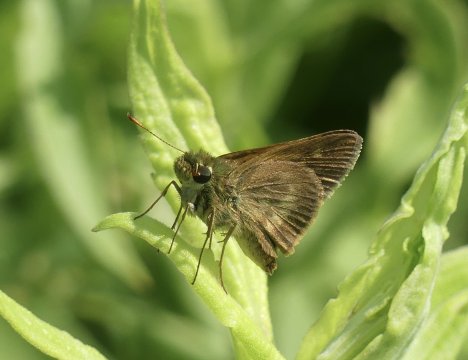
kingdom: Animalia
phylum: Arthropoda
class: Insecta
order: Lepidoptera
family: Hesperiidae
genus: Polites
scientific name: Polites egeremet
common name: Northern Broken-Dash
